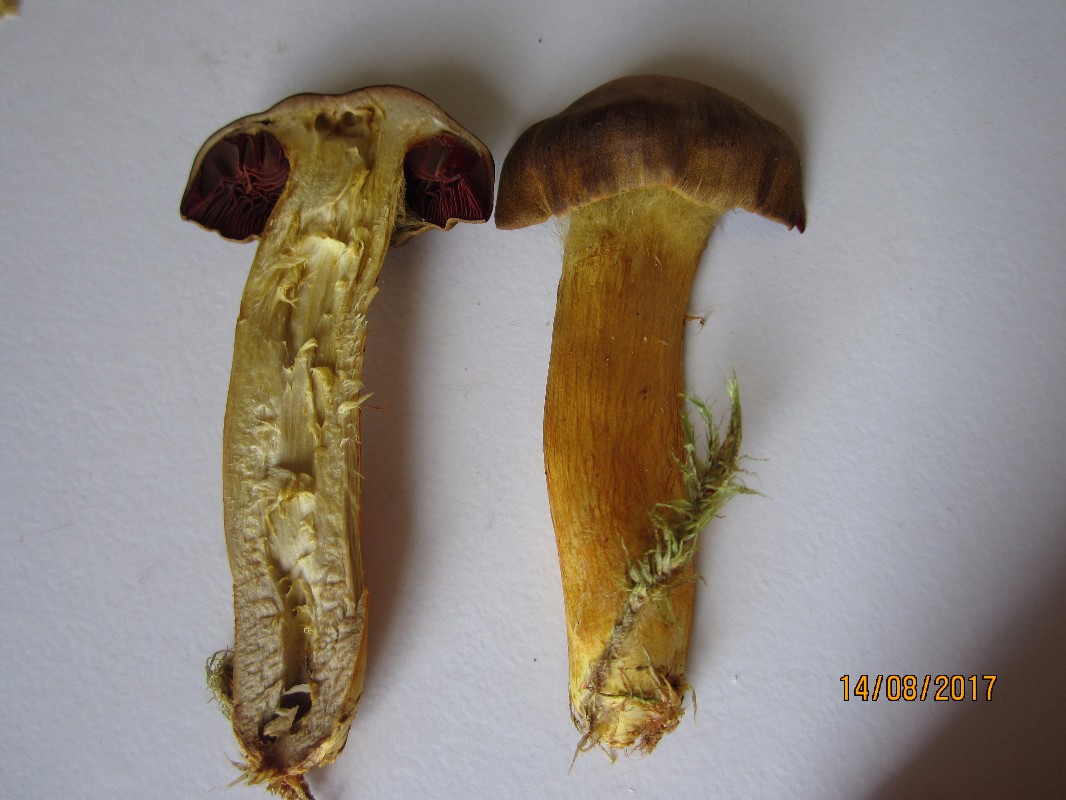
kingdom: Fungi
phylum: Basidiomycota
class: Agaricomycetes
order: Agaricales
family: Cortinariaceae
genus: Cortinarius
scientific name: Cortinarius purpureus
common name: brunrød slørhat
